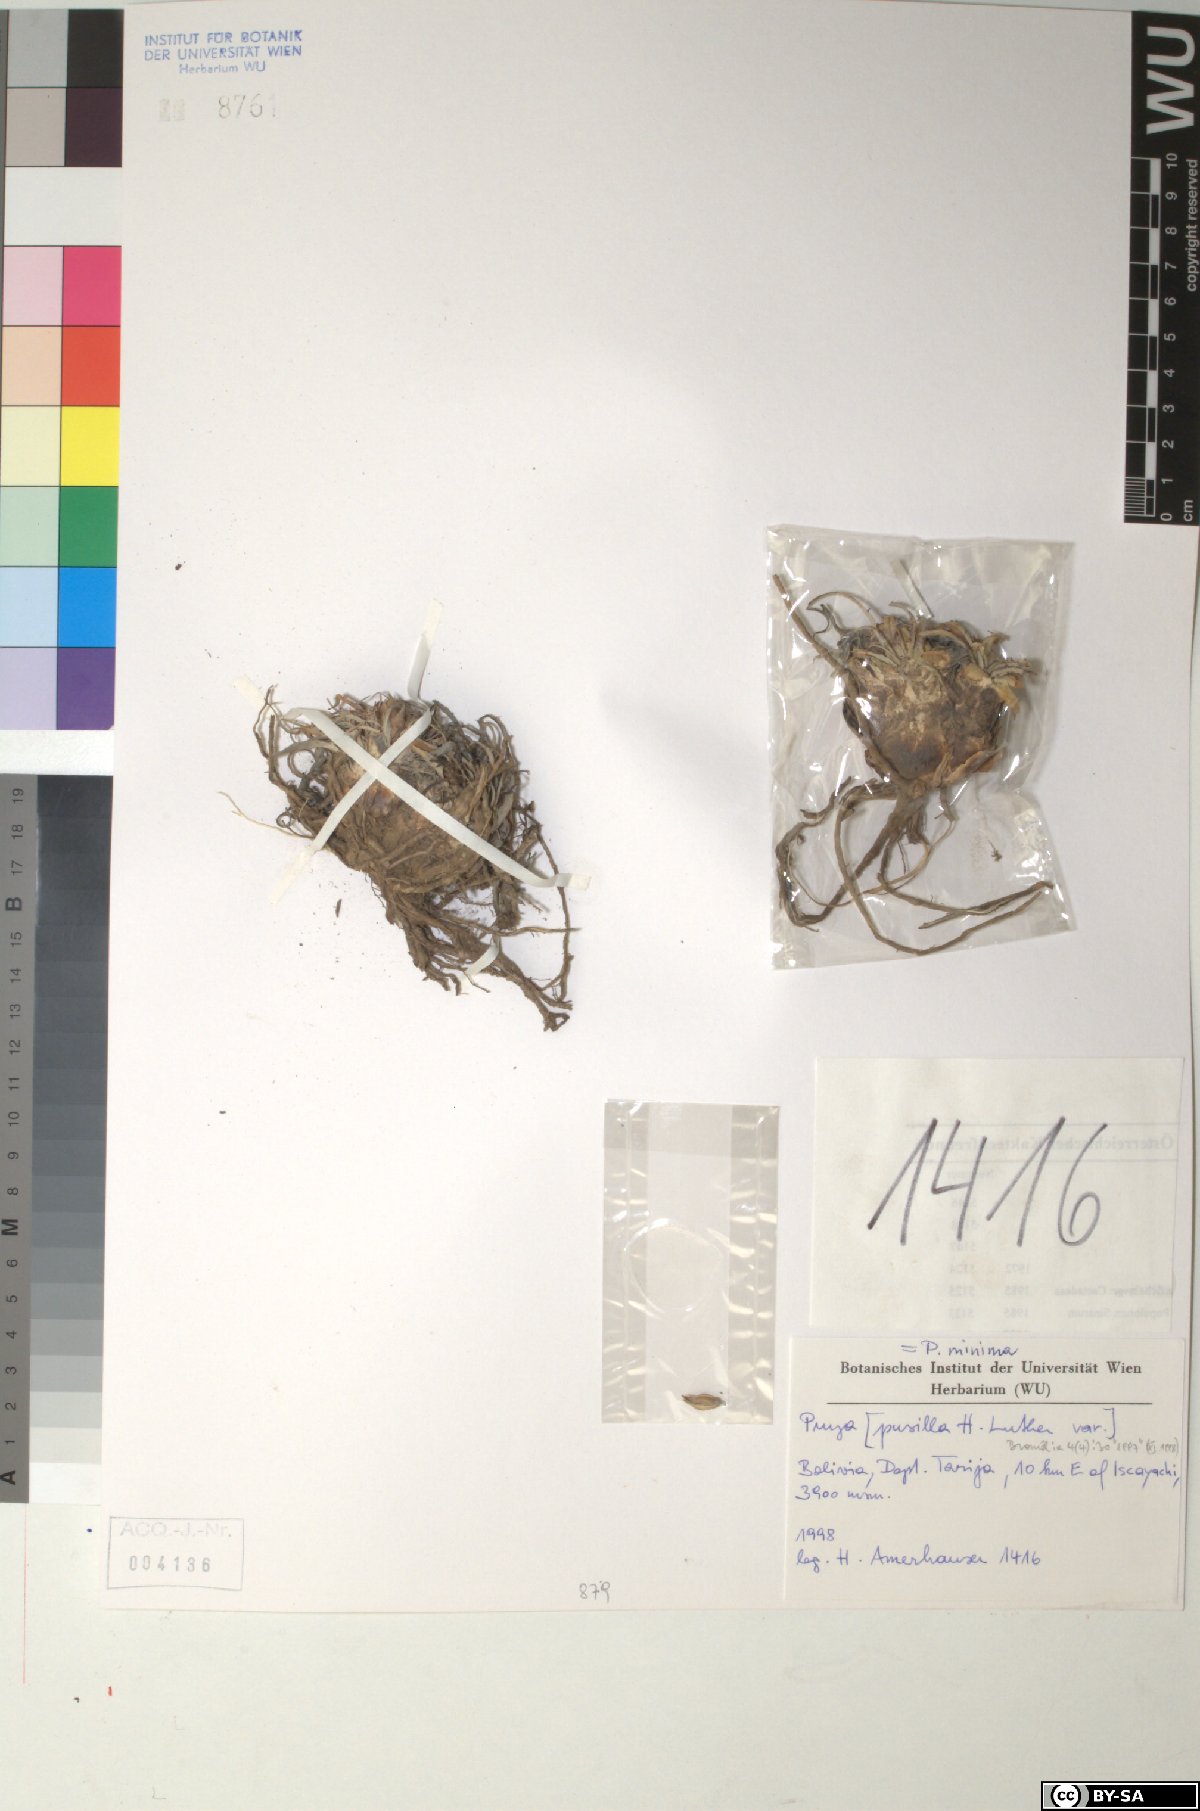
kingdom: Plantae
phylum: Tracheophyta
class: Liliopsida
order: Poales
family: Bromeliaceae
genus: Puya
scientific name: Puya pusilla
